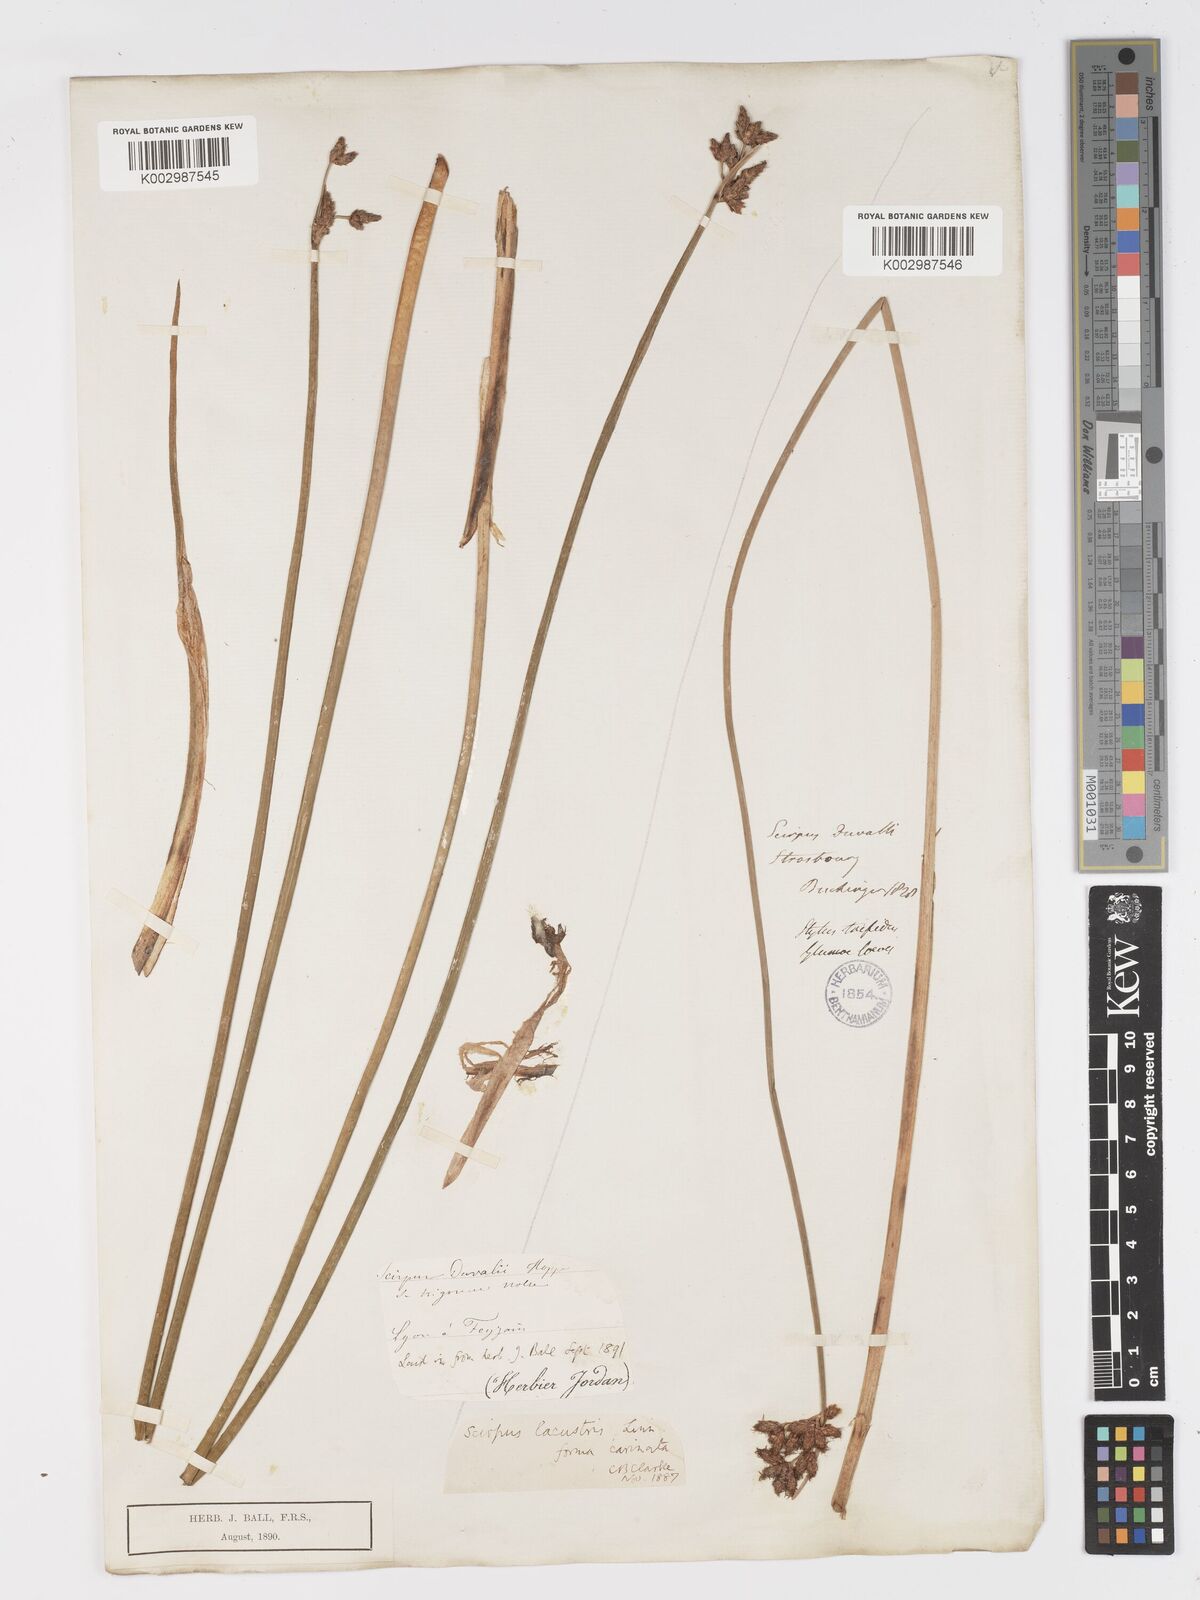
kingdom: Plantae
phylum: Tracheophyta
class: Liliopsida
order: Poales
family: Cyperaceae
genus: Schoenoplectus
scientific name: Schoenoplectus lacustris
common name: Common club-rush
